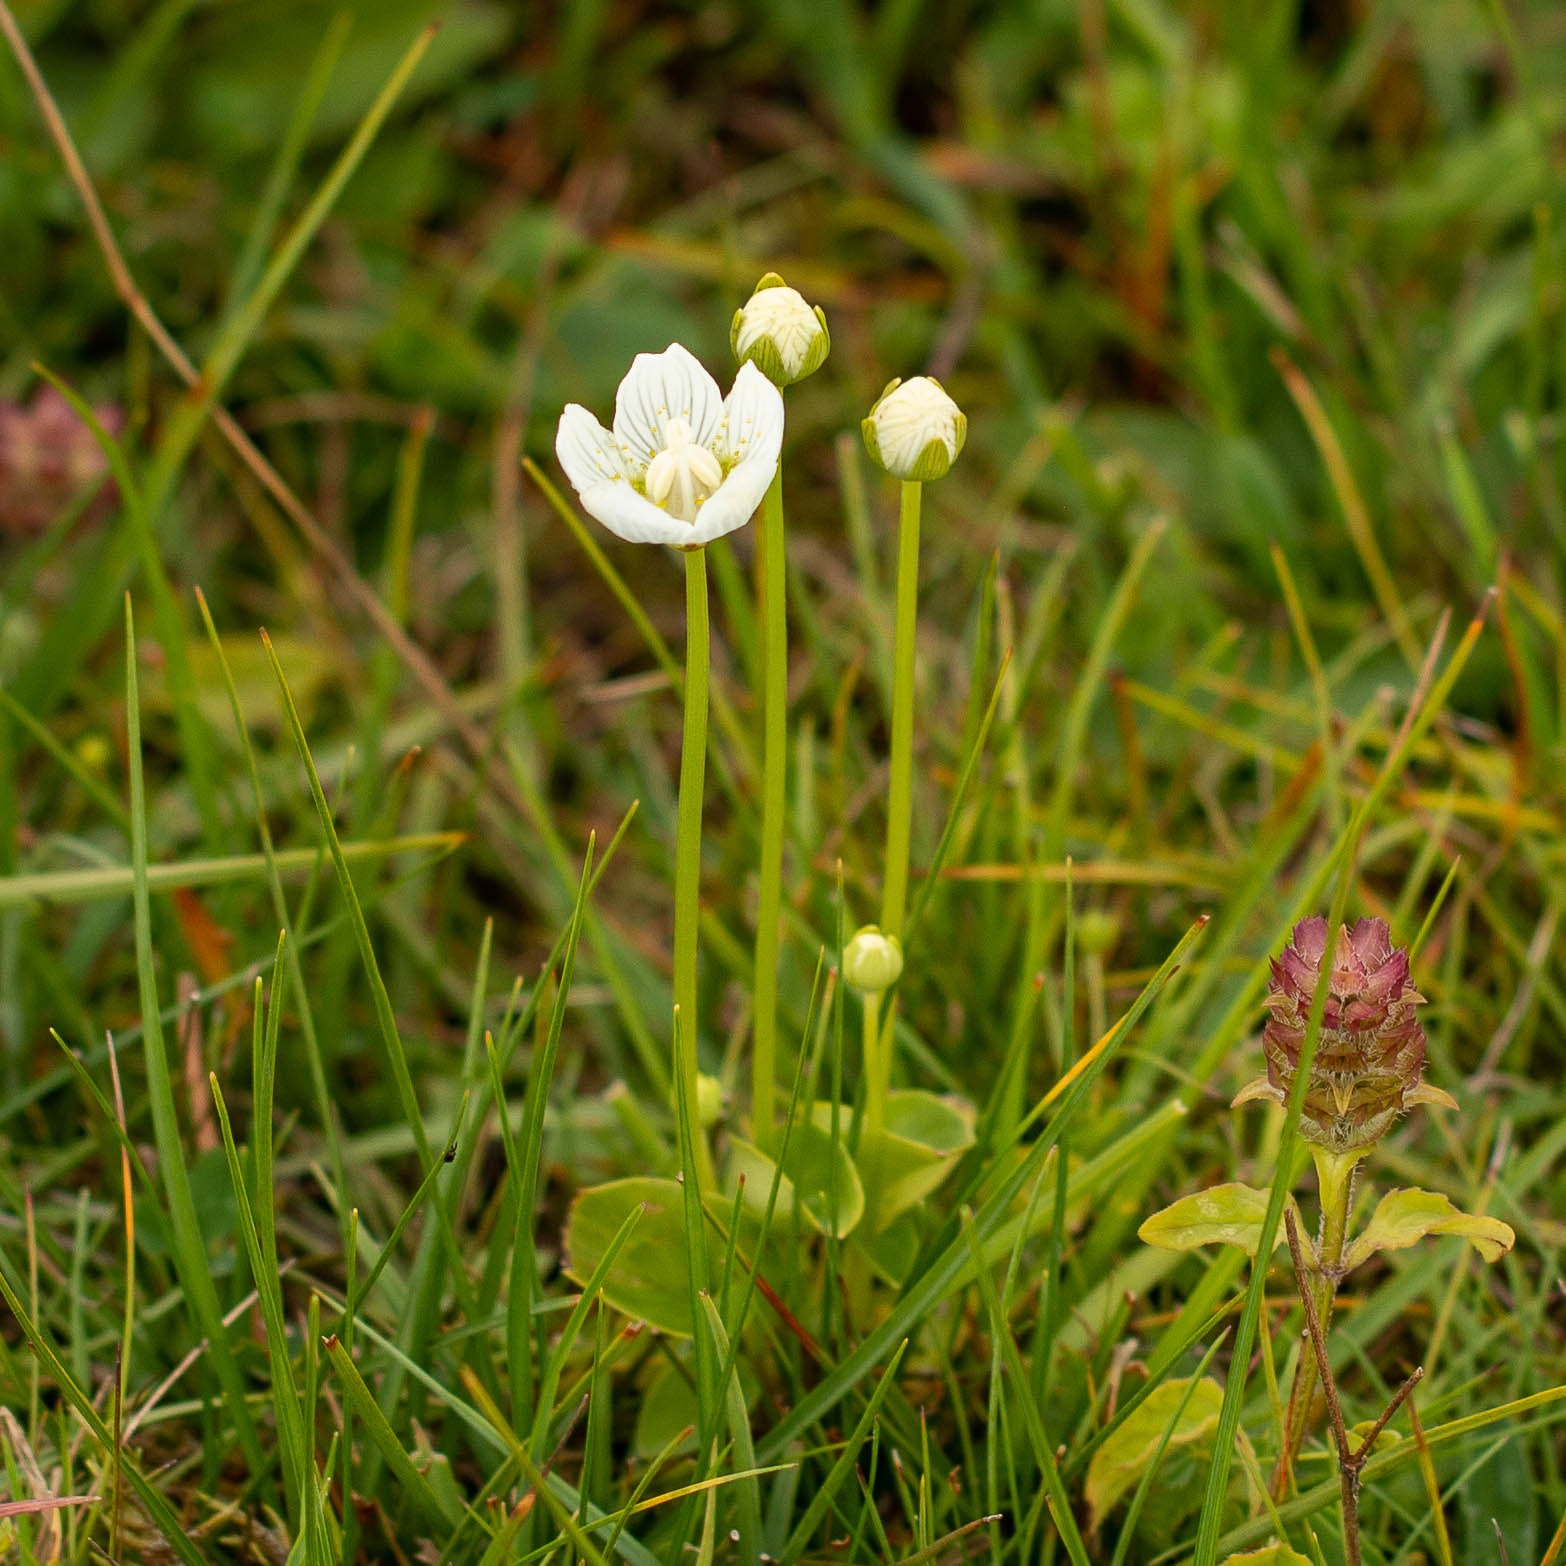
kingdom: Plantae
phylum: Tracheophyta
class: Magnoliopsida
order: Celastrales
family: Parnassiaceae
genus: Parnassia
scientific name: Parnassia palustris
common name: Leverurt
